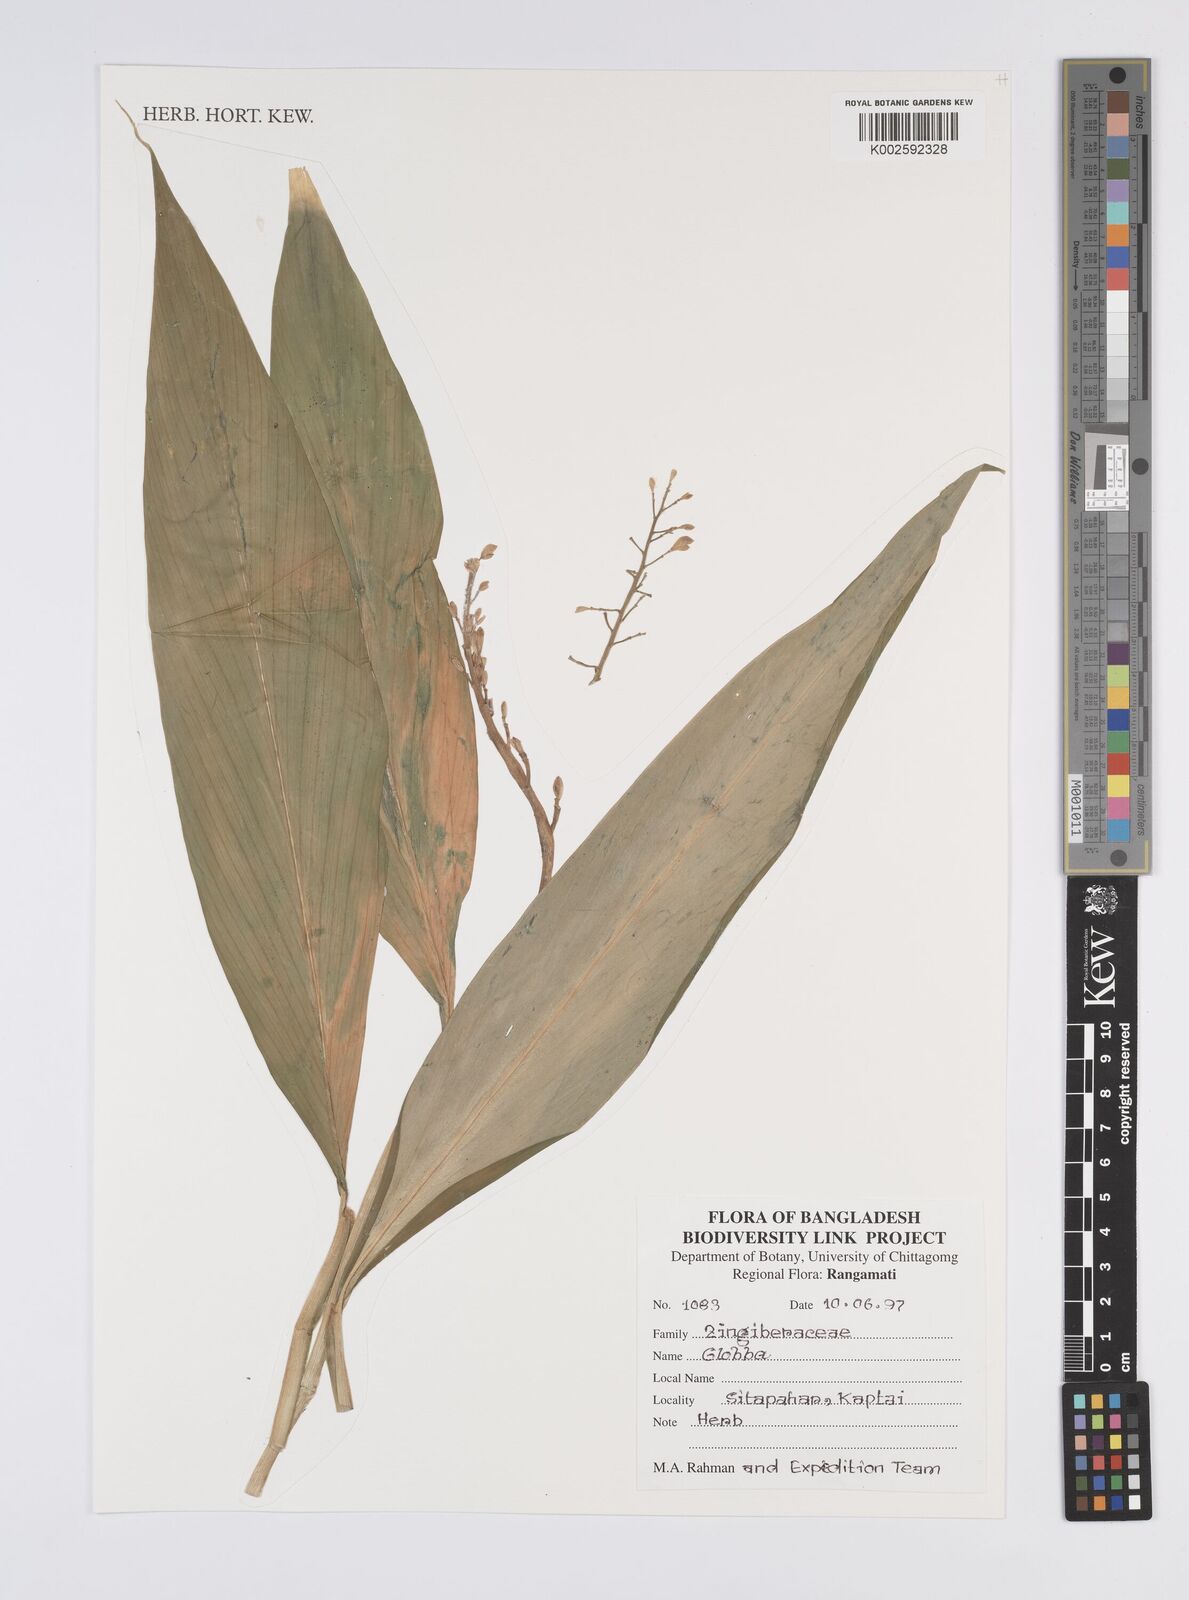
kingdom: Plantae
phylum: Tracheophyta
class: Liliopsida
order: Zingiberales
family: Zingiberaceae
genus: Globba
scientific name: Globba
